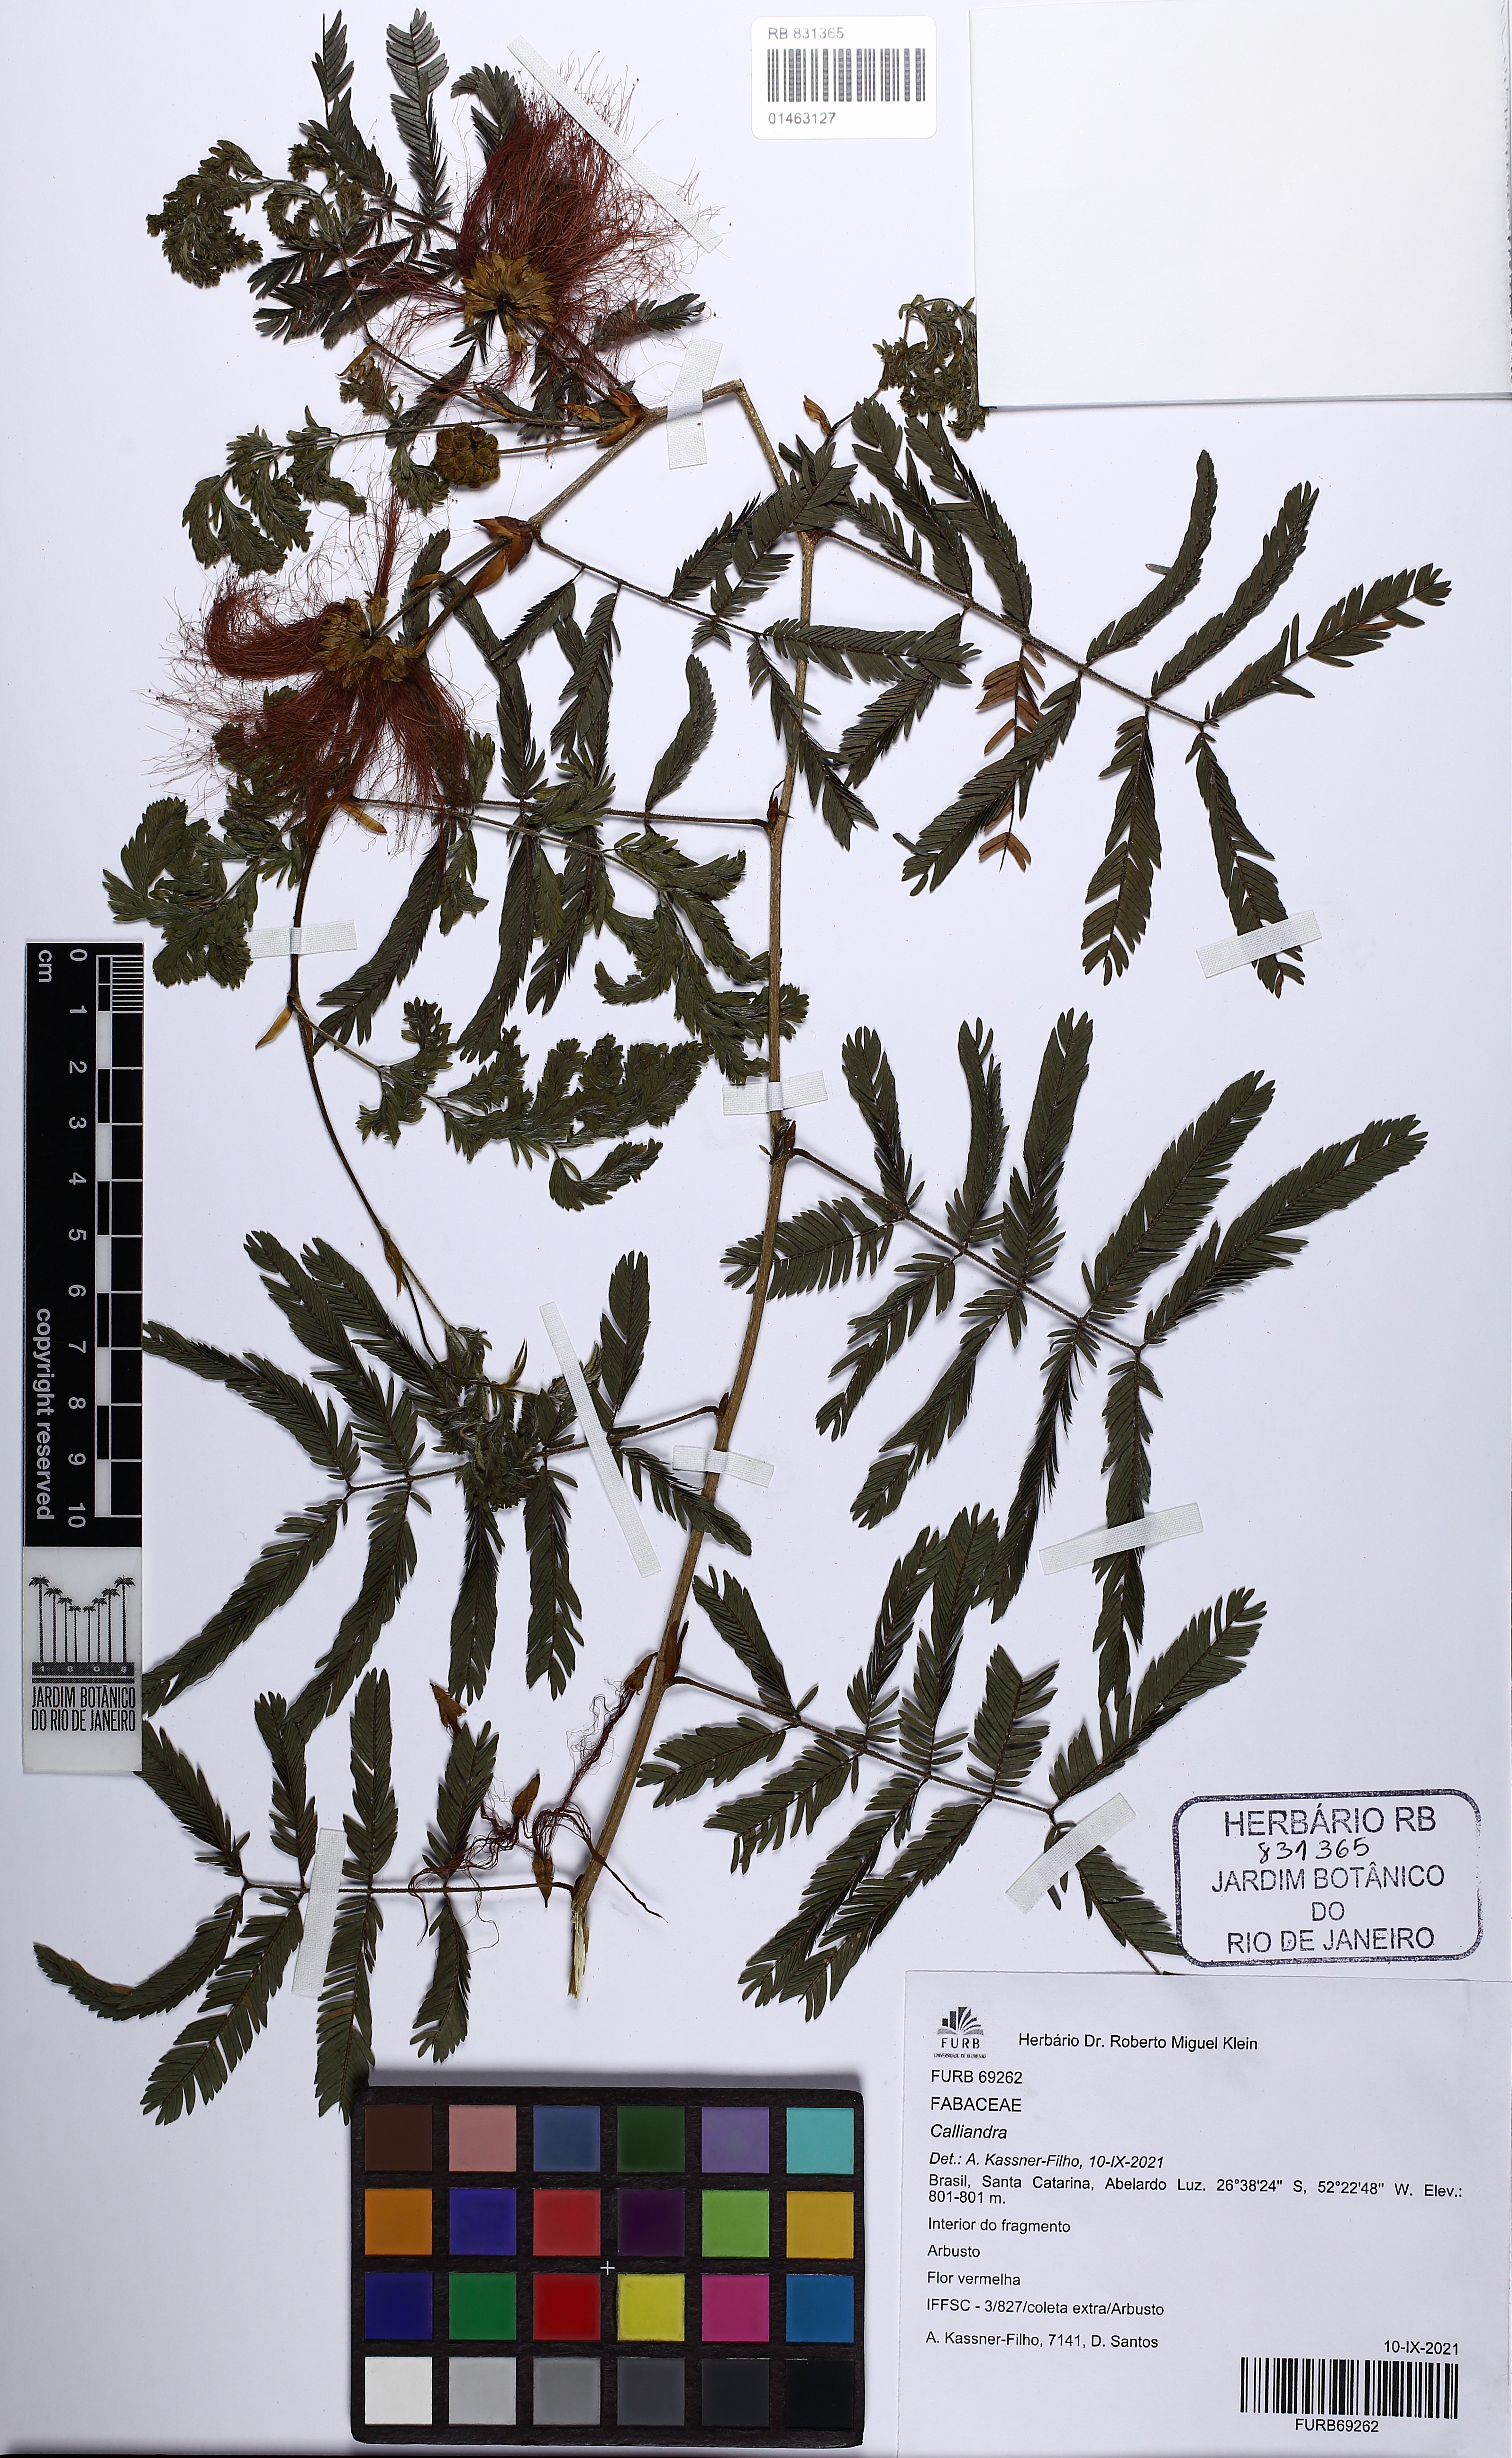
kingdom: Plantae
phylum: Tracheophyta
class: Magnoliopsida
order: Fabales
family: Fabaceae
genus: Calliandra
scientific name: Calliandra
